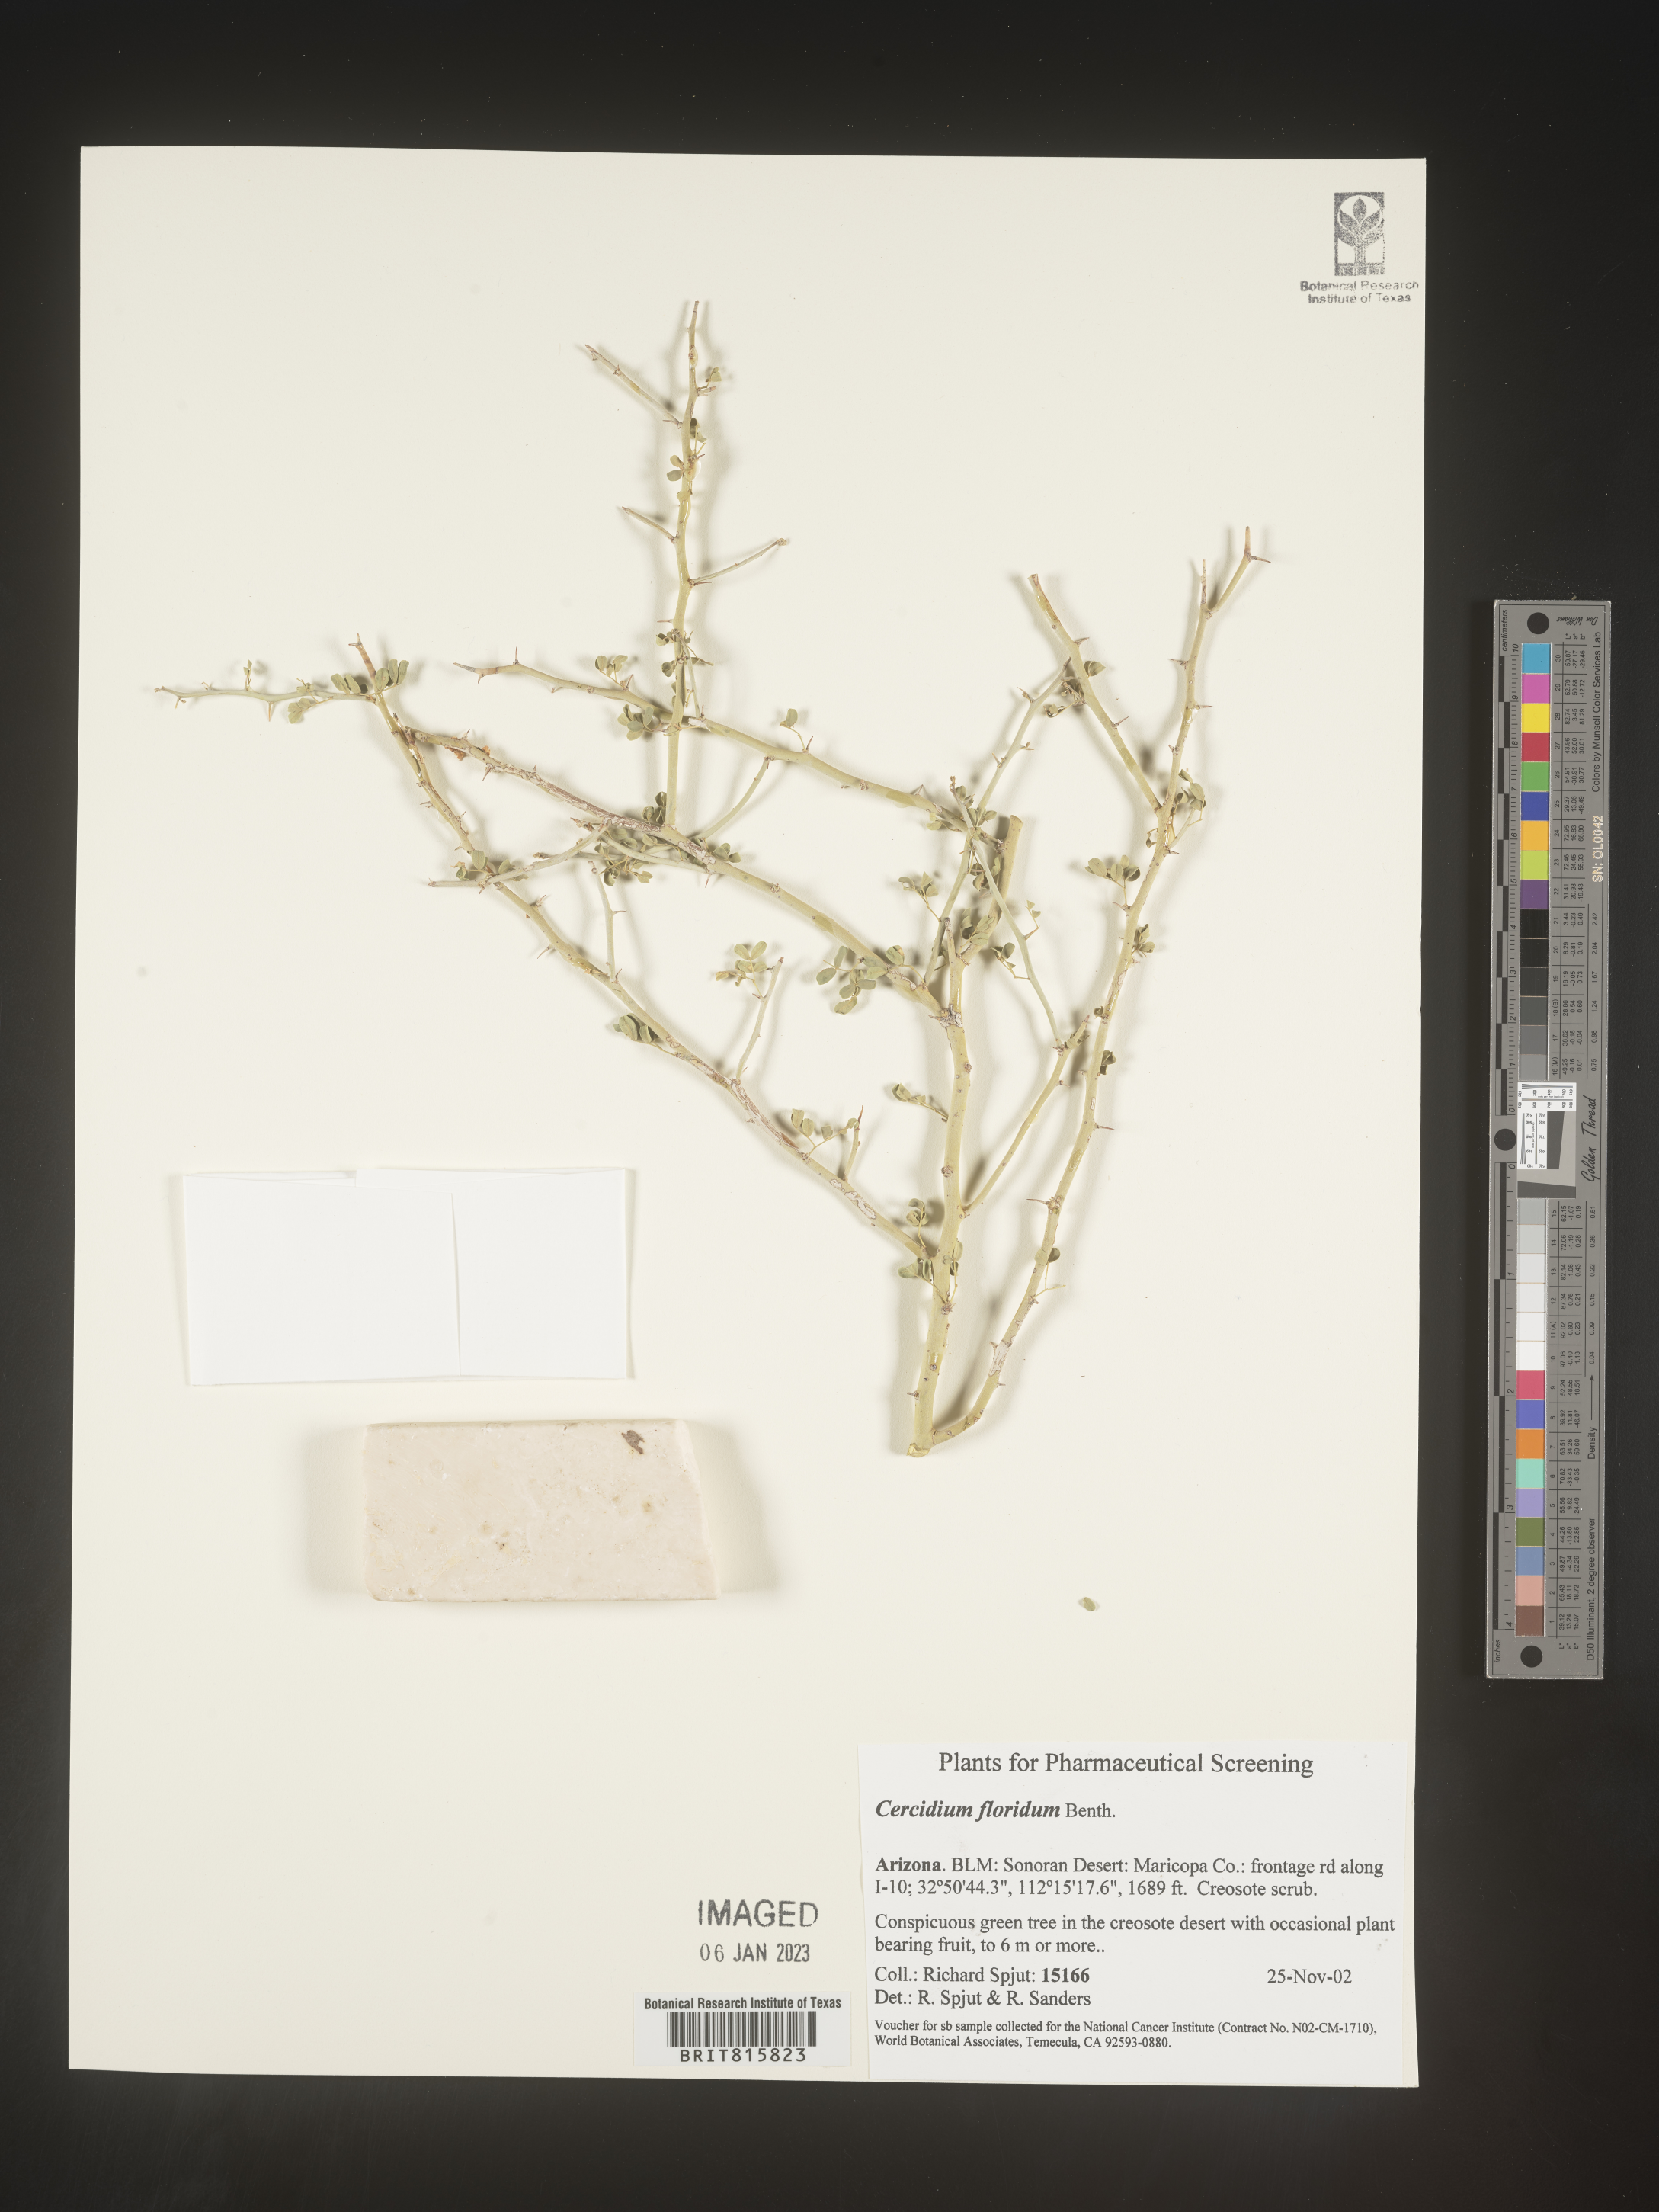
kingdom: Plantae
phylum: Chlorophyta
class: Chlorophyceae
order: Volvocales
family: Chlamydomonadaceae
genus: Cercidium
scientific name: Cercidium
